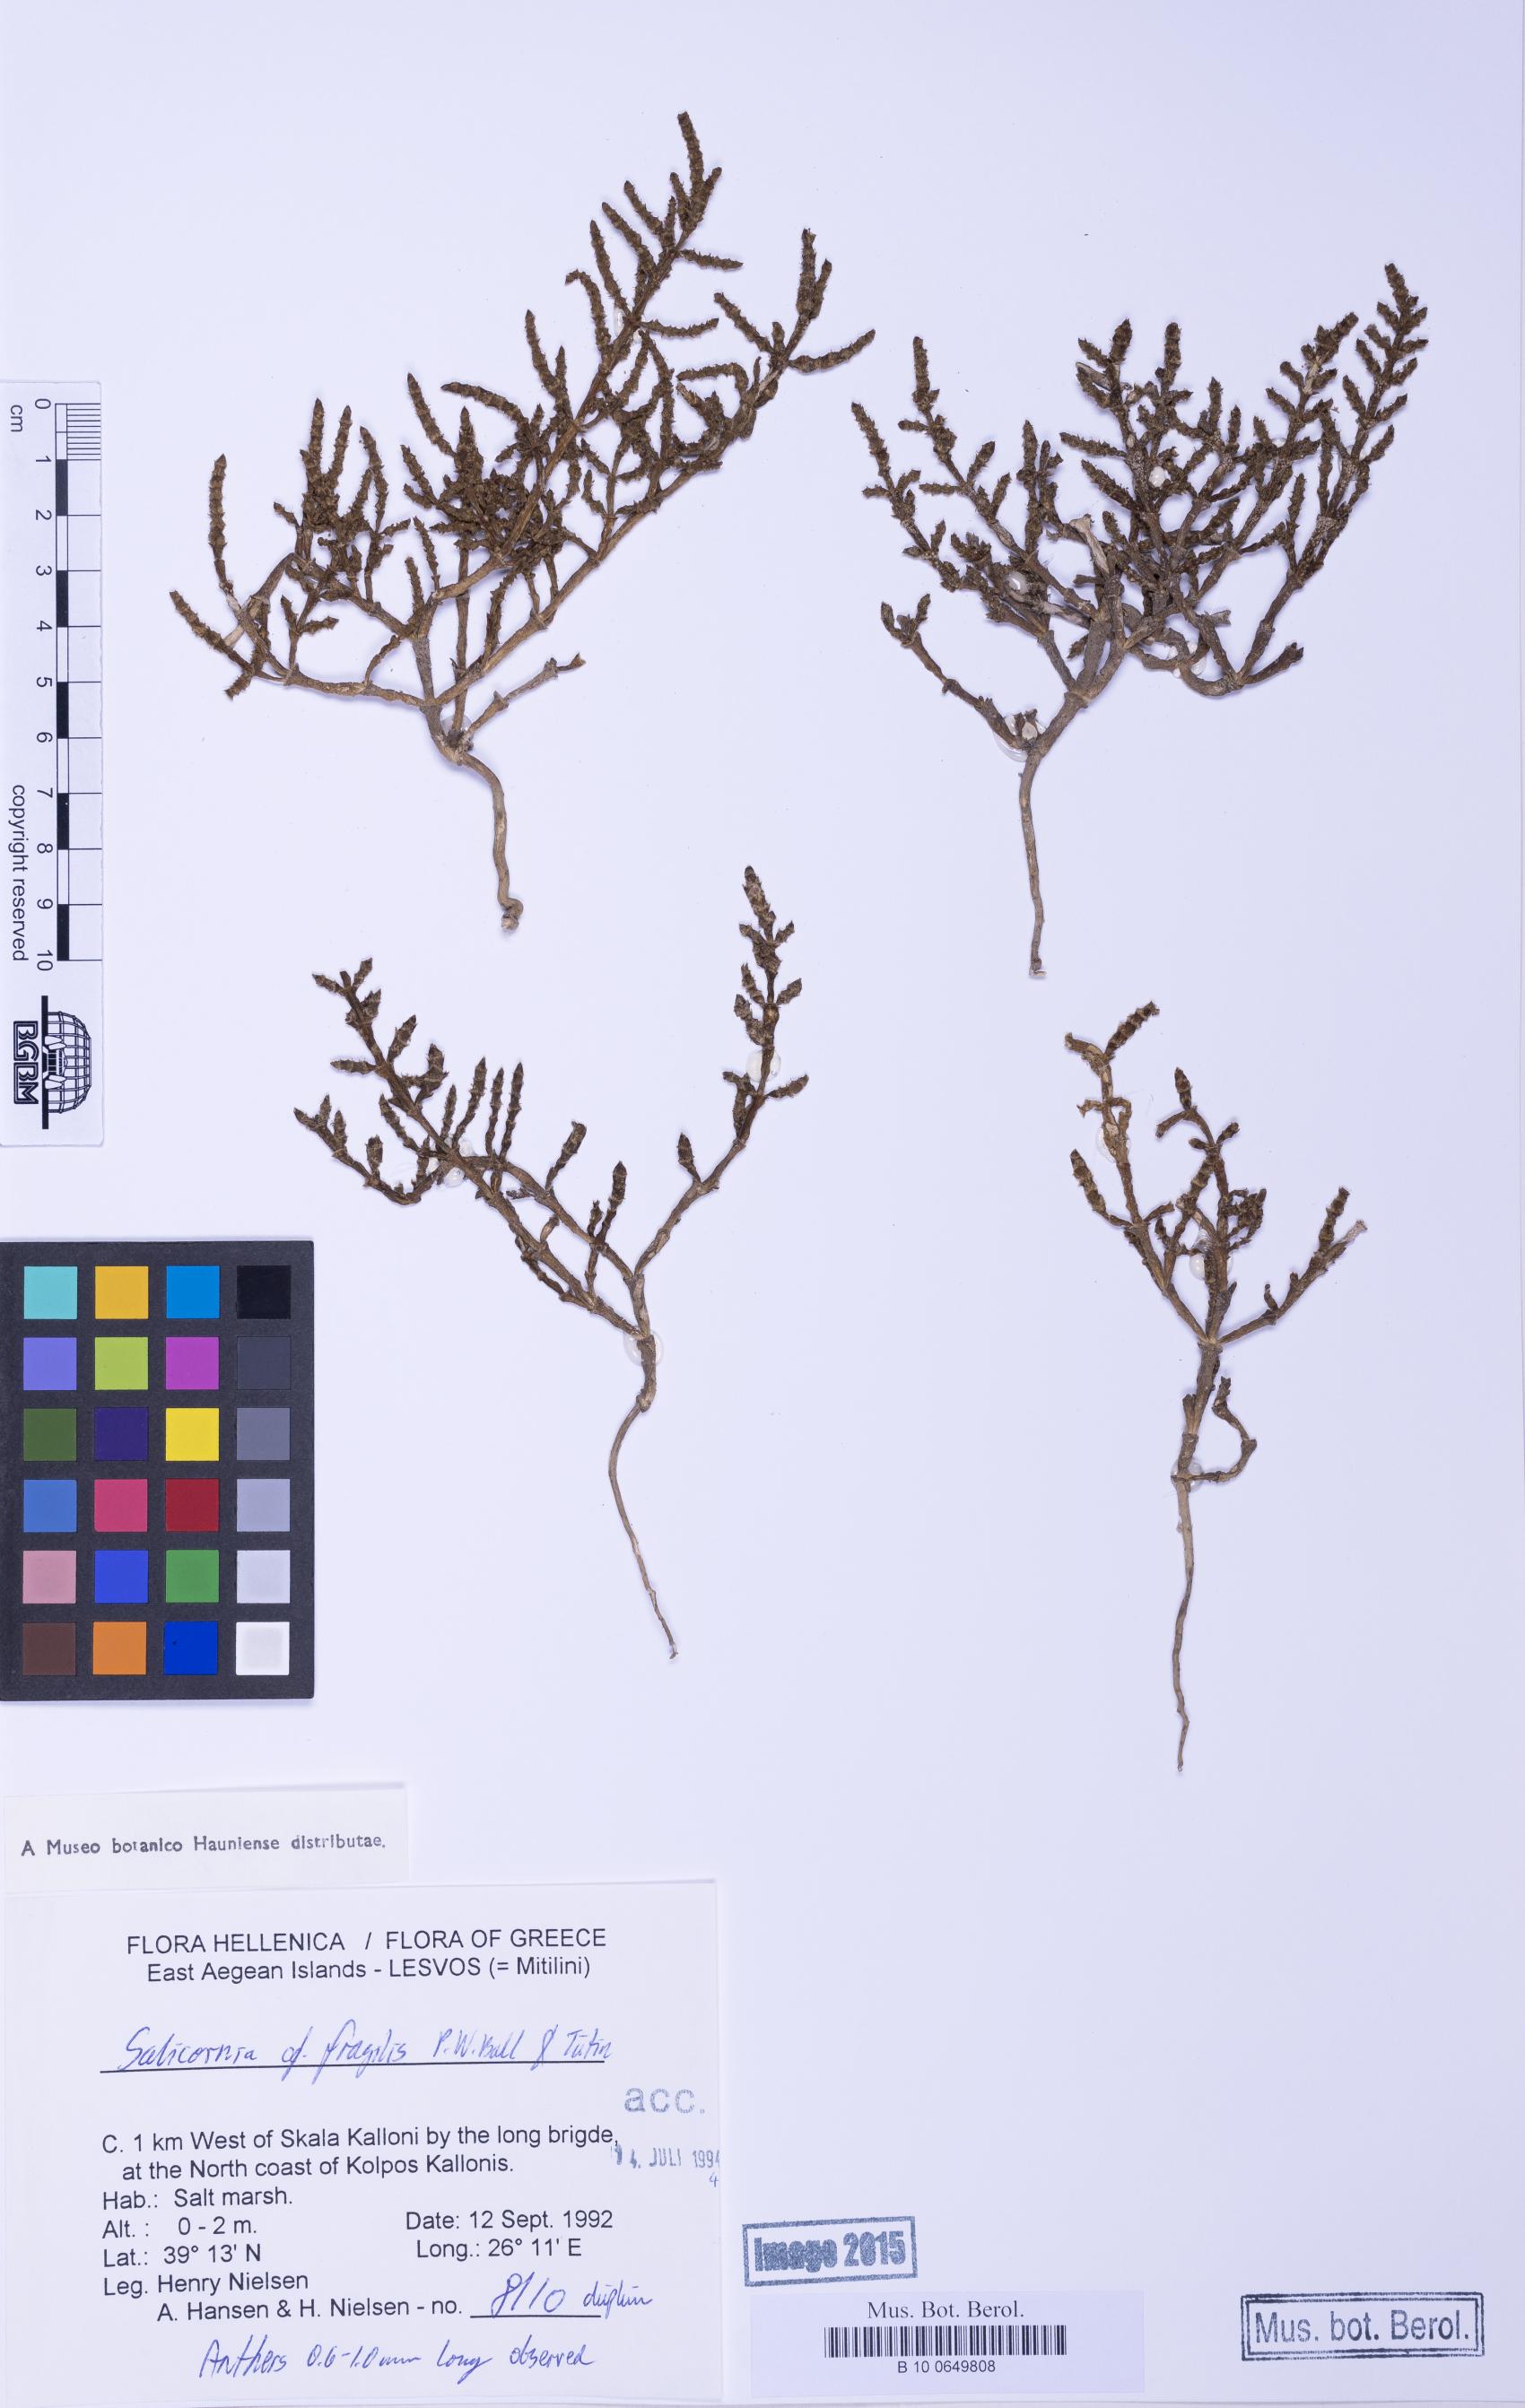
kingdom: Plantae
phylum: Tracheophyta
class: Magnoliopsida
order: Caryophyllales
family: Amaranthaceae
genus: Salicornia
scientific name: Salicornia perennans
